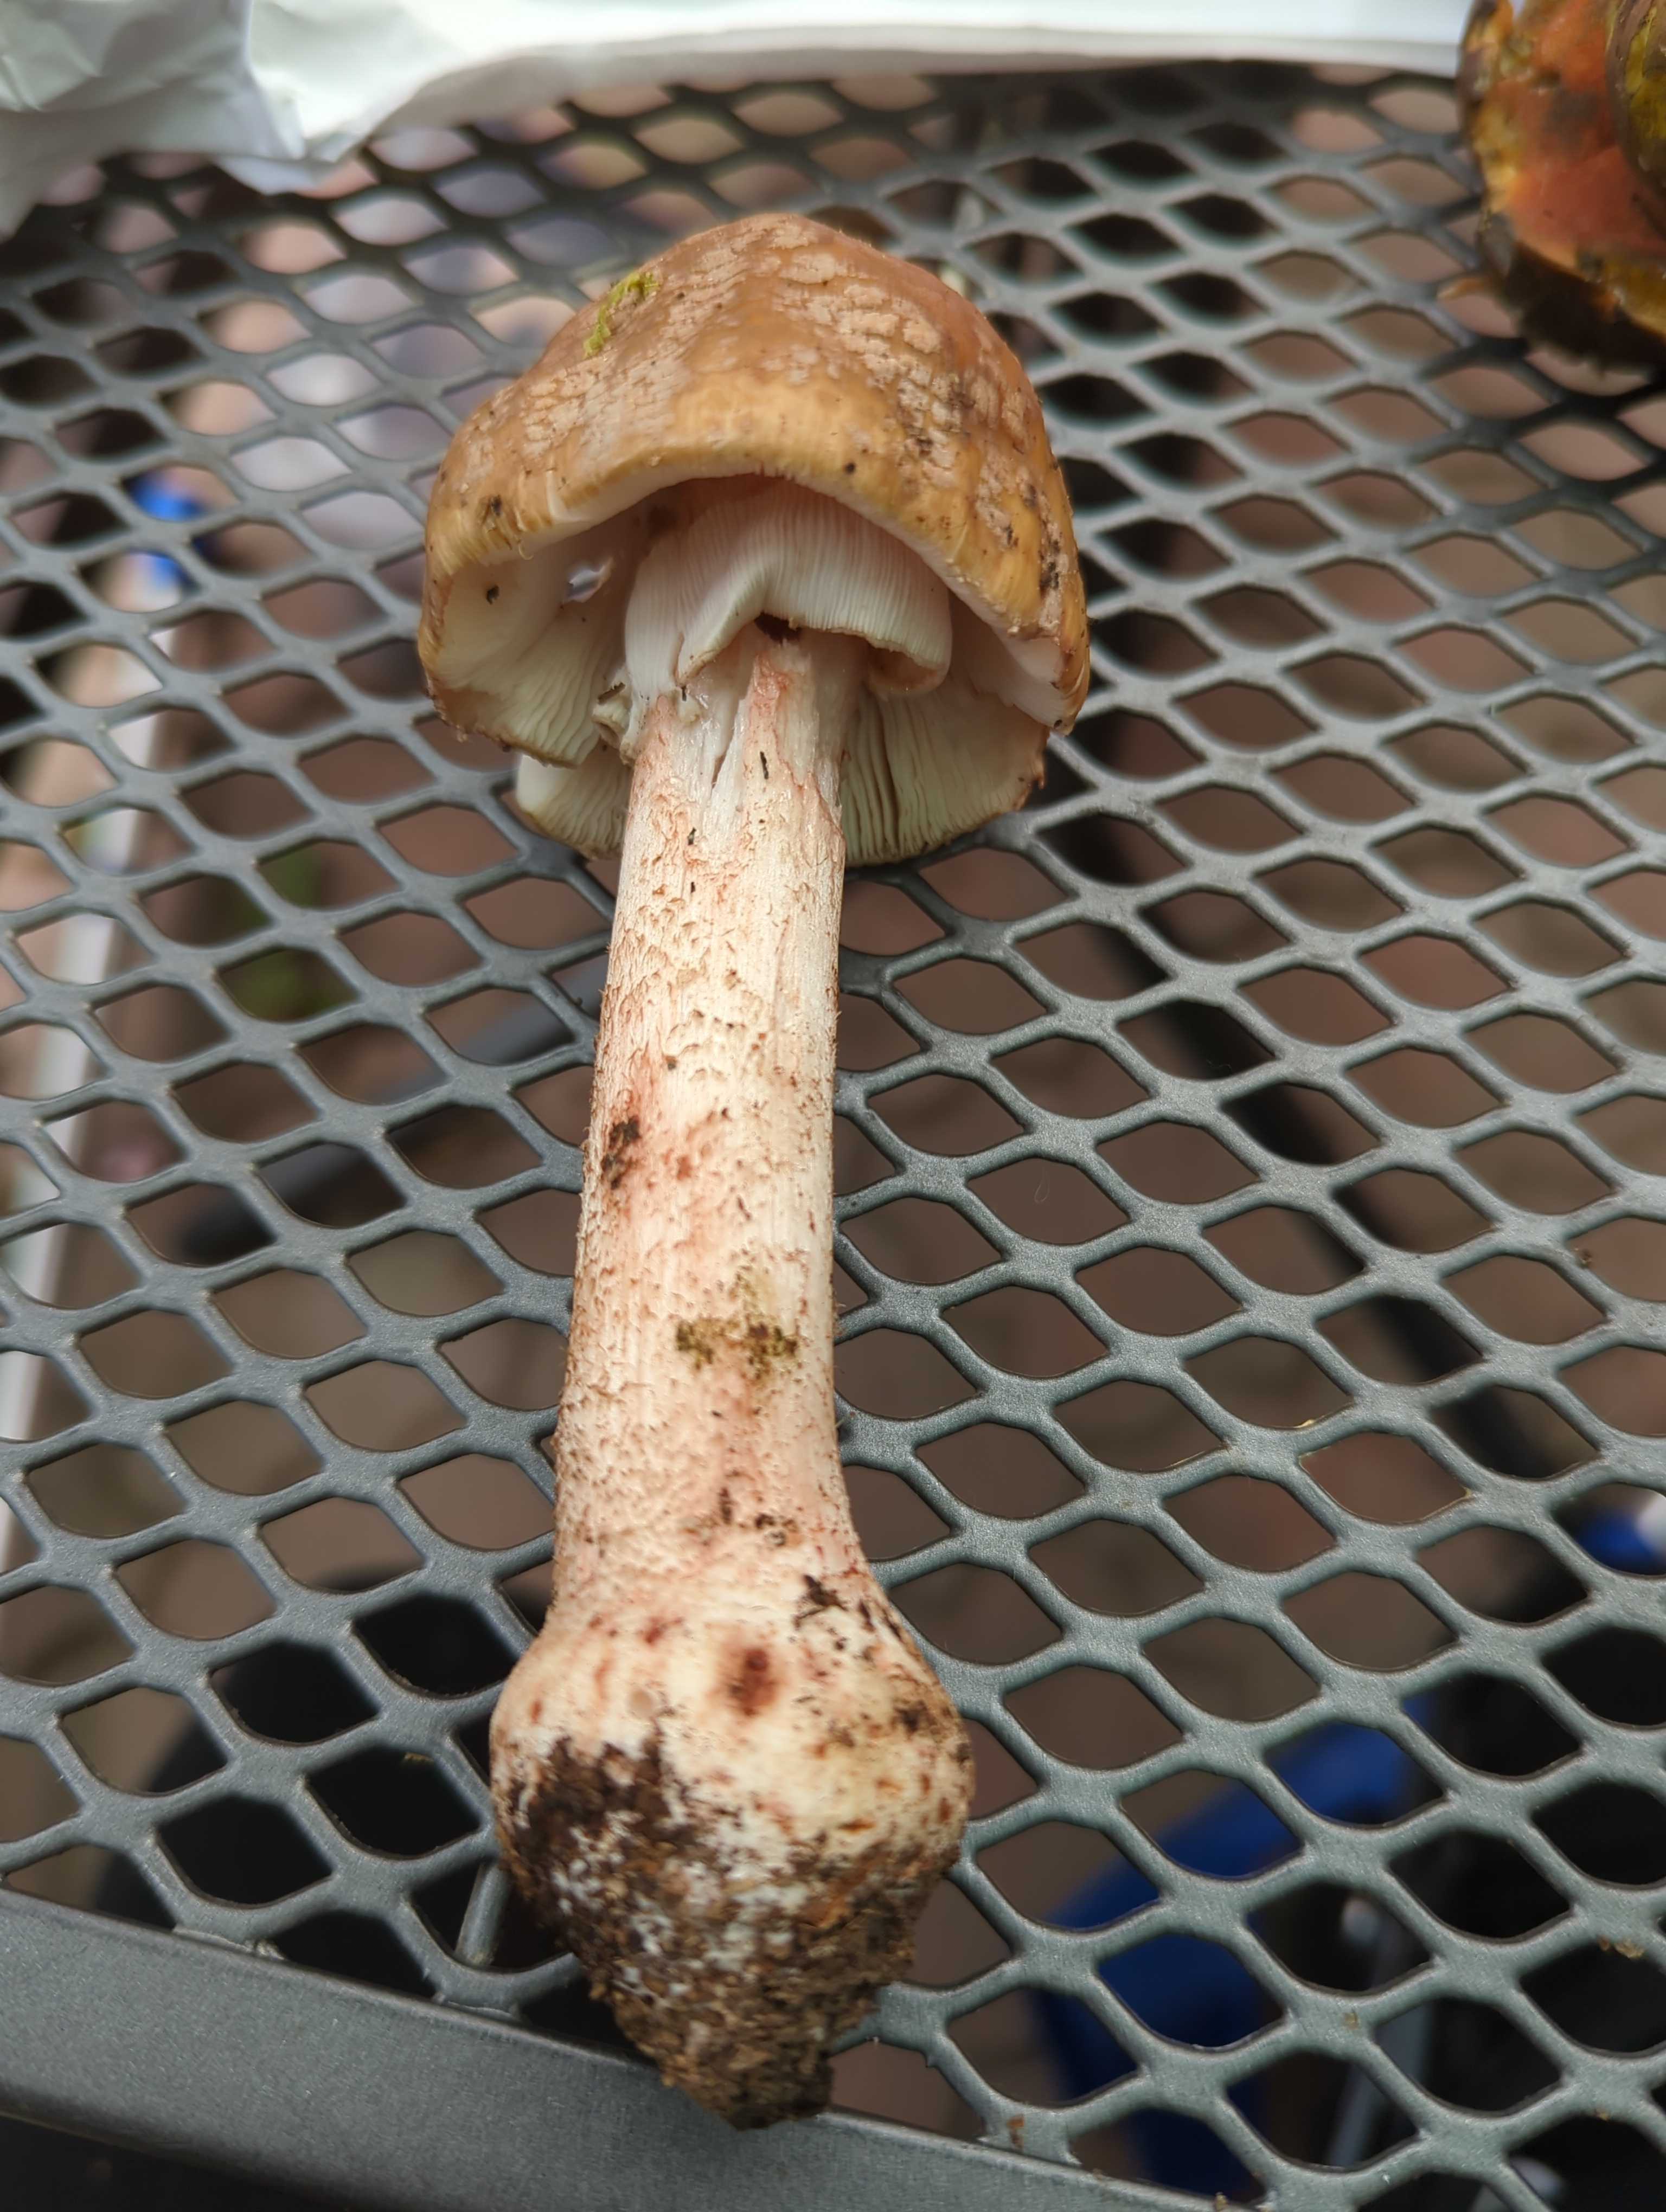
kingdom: Fungi
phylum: Basidiomycota
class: Agaricomycetes
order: Agaricales
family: Amanitaceae
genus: Amanita
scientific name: Amanita rubescens
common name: rødmende fluesvamp
